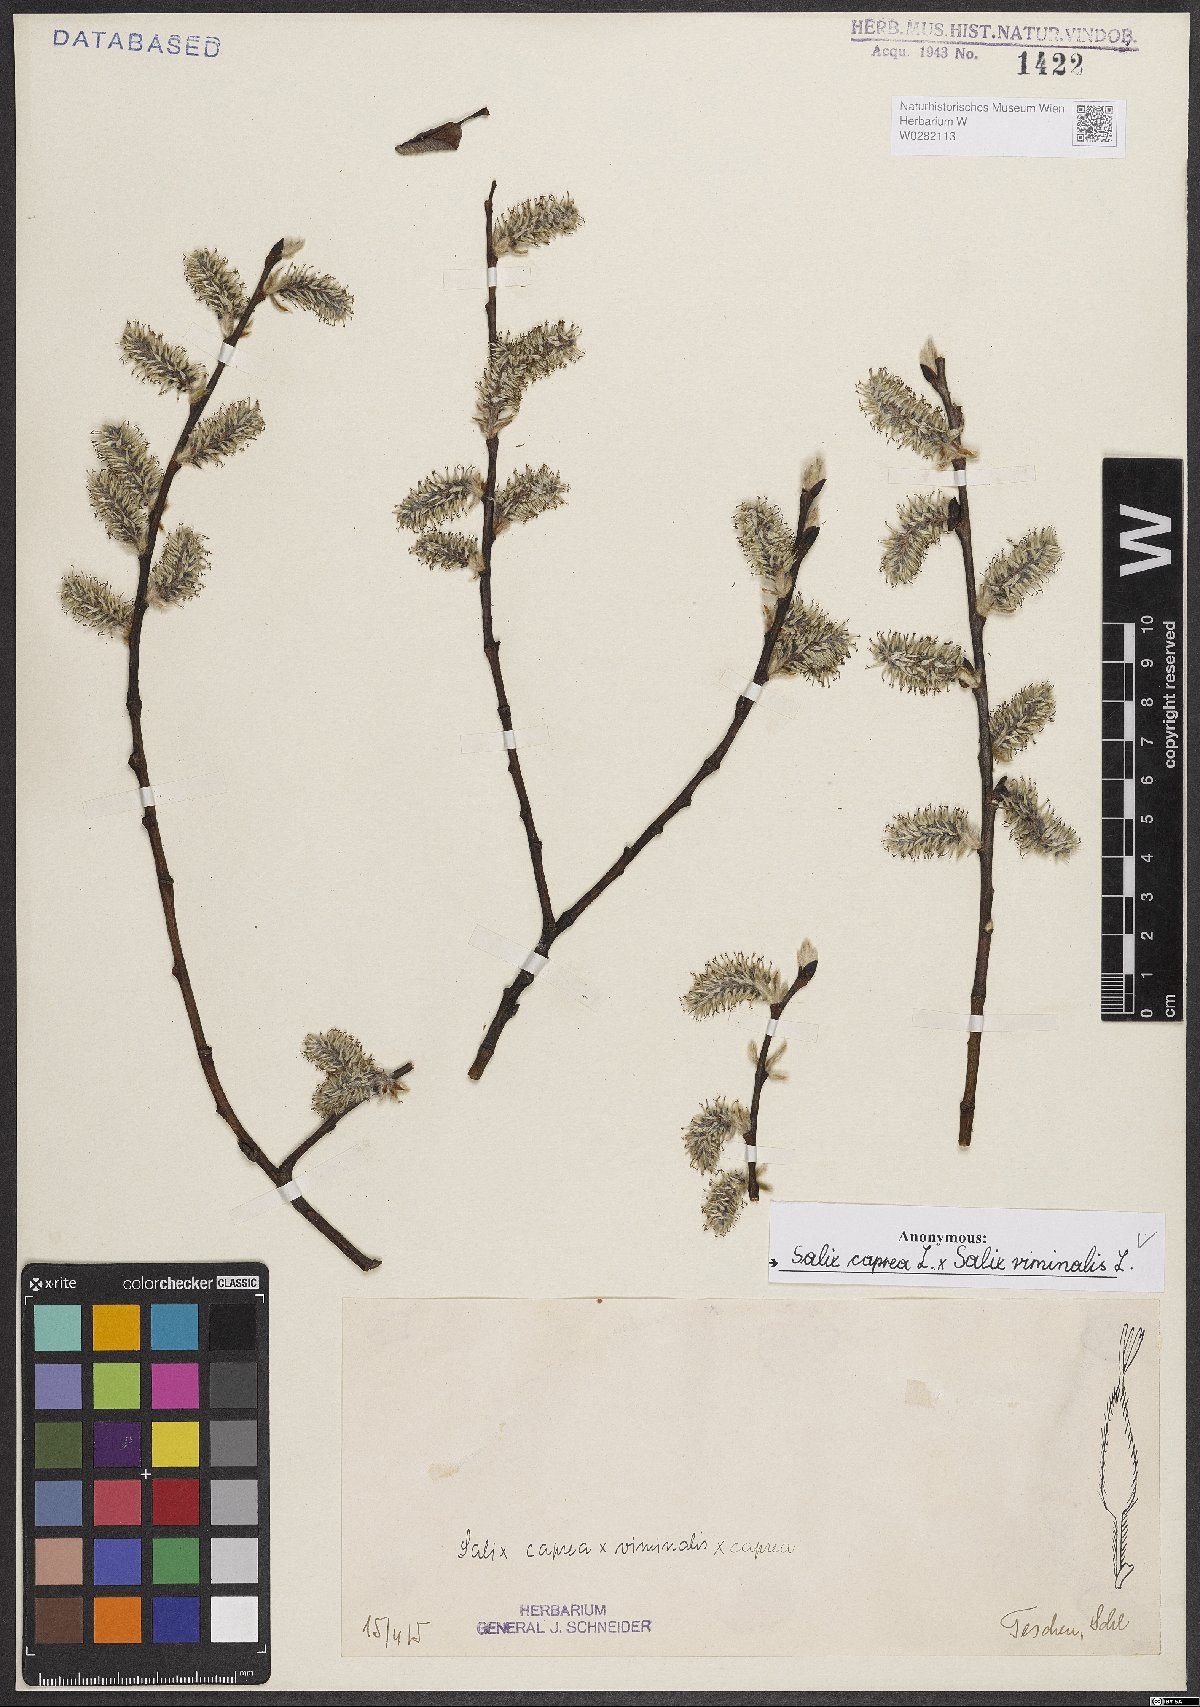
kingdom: Plantae
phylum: Tracheophyta
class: Magnoliopsida
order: Malpighiales
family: Salicaceae
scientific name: Salicaceae
